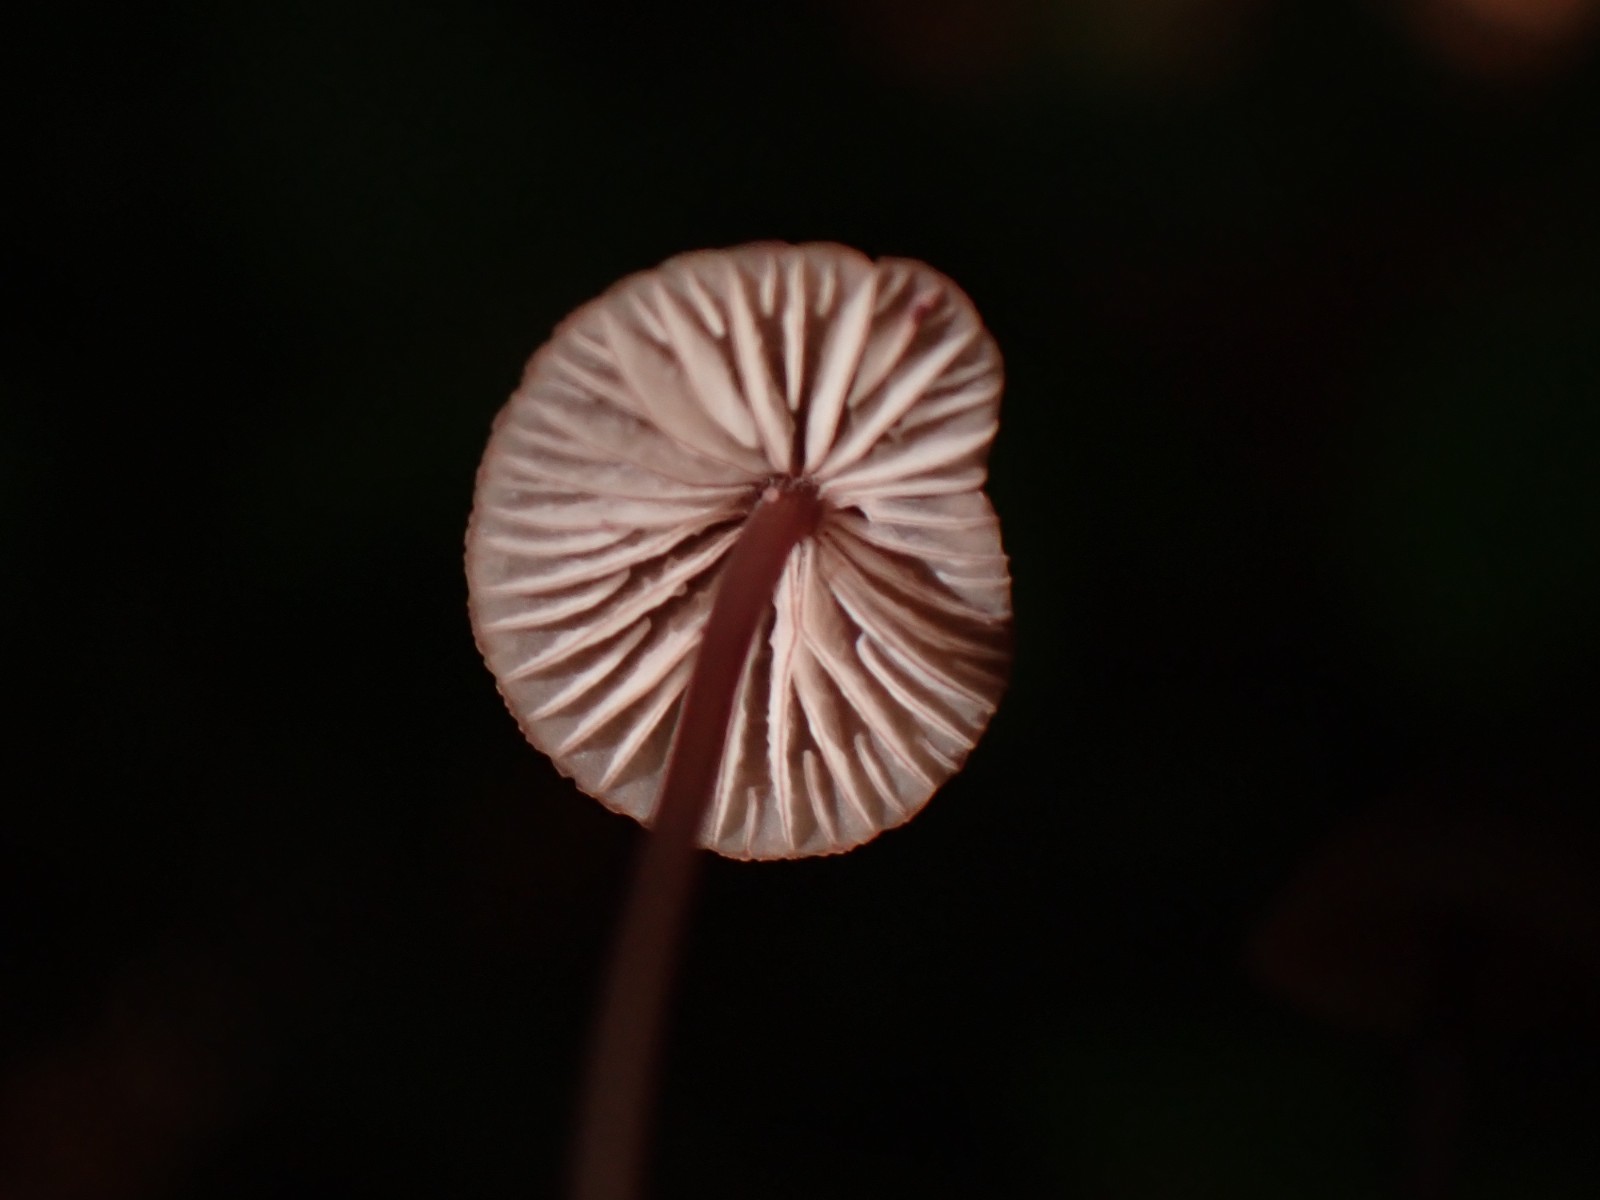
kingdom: Fungi
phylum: Basidiomycota
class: Agaricomycetes
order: Agaricales
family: Mycenaceae
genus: Mycena
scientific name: Mycena sanguinolenta
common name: rødmælket huesvamp
